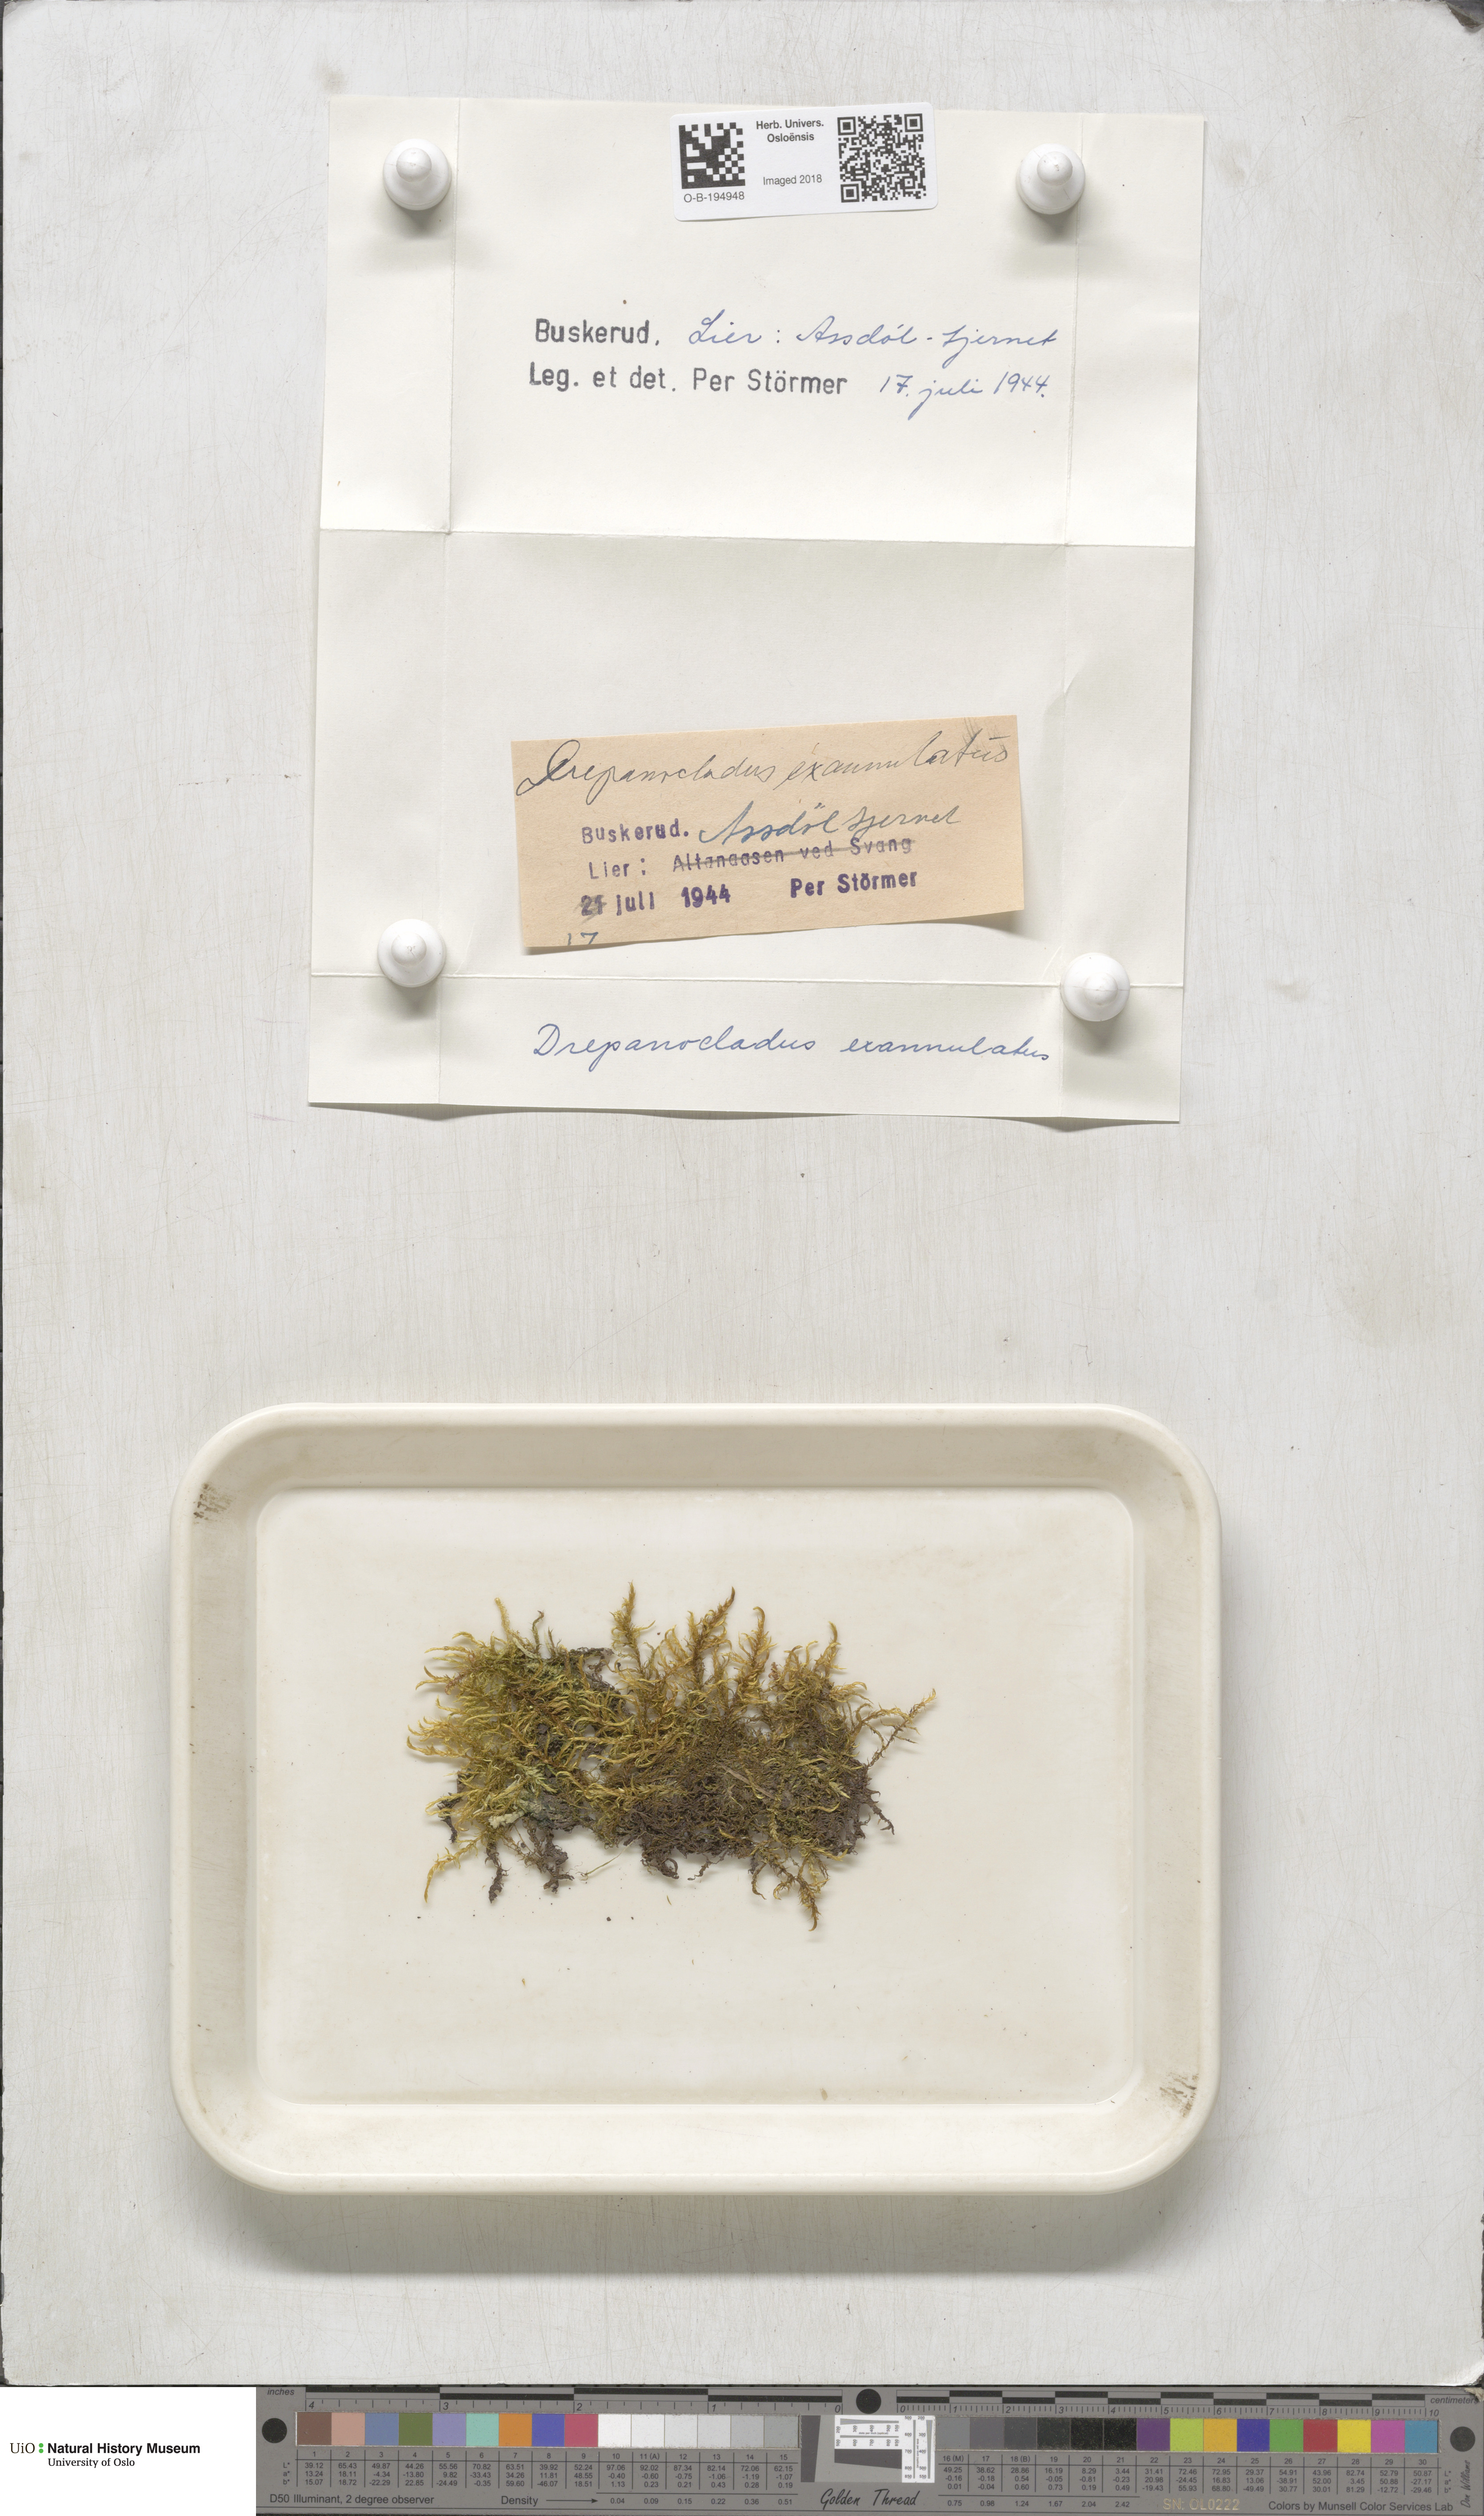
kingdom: Plantae
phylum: Bryophyta
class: Bryopsida
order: Hypnales
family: Calliergonaceae
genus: Sarmentypnum
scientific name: Sarmentypnum exannulatum
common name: Ringless spoon moss
